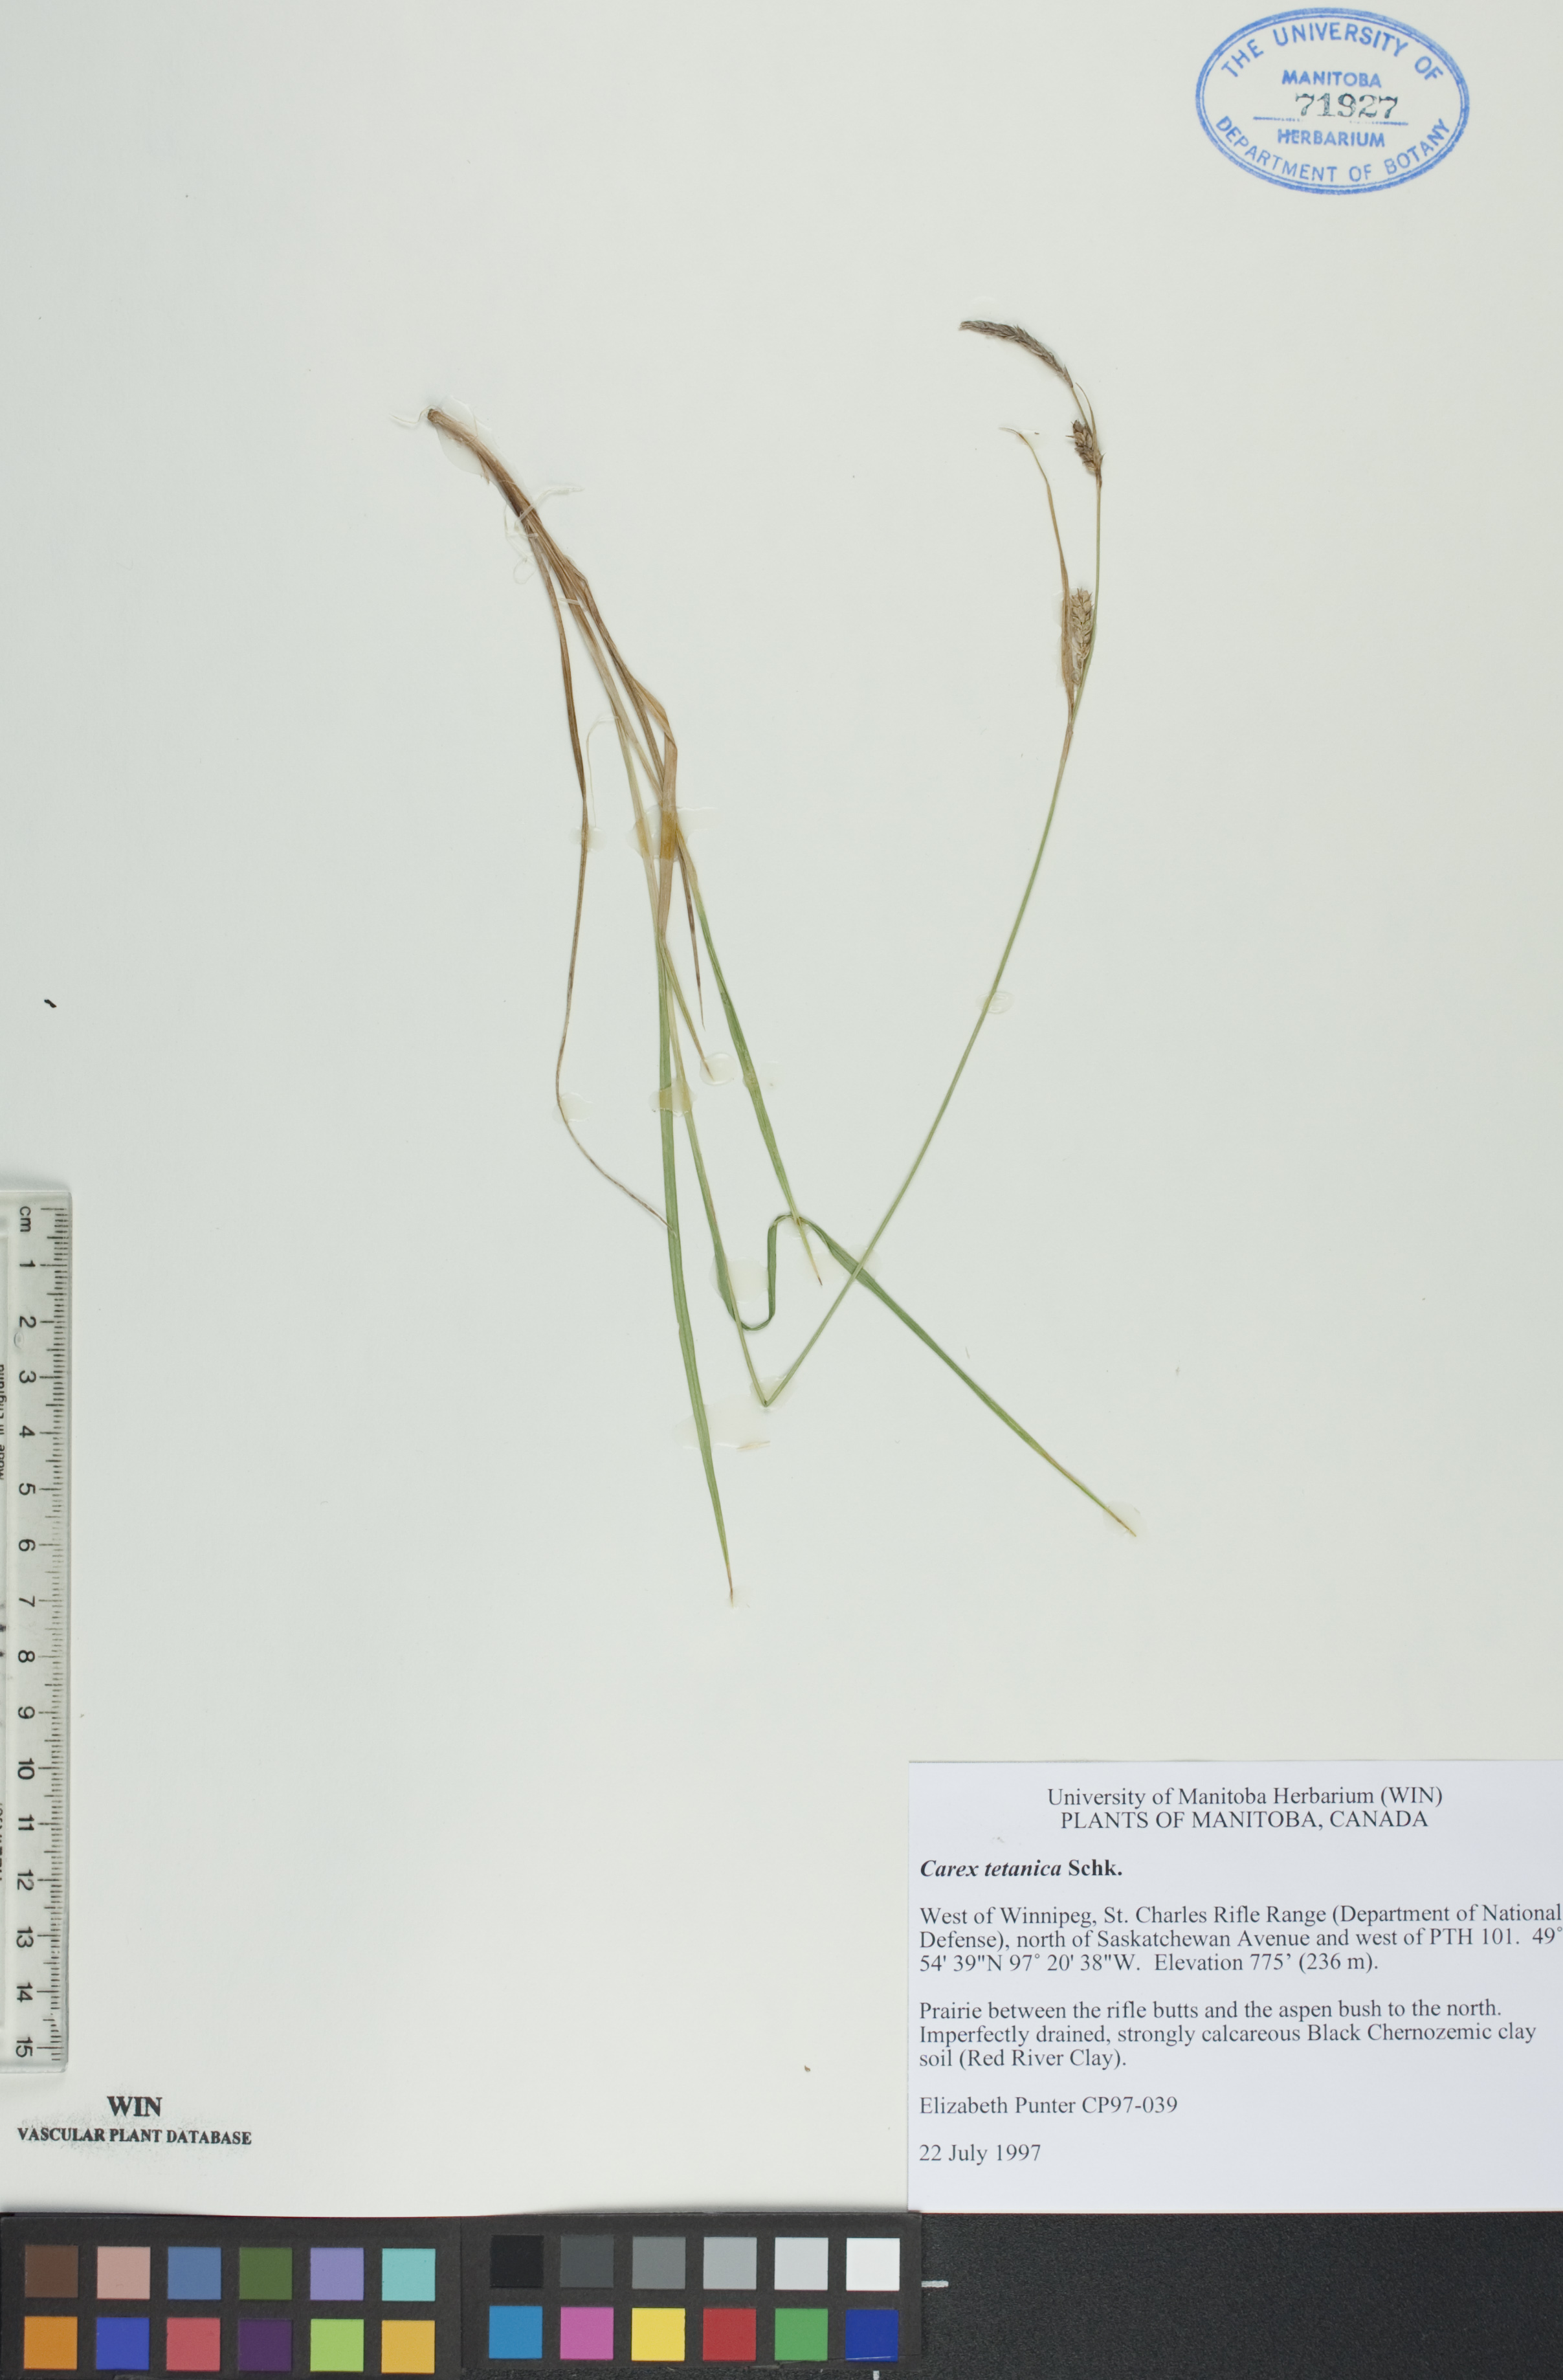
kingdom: Plantae
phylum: Tracheophyta
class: Liliopsida
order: Poales
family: Cyperaceae
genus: Carex
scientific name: Carex tetanica
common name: Rigid sedge
